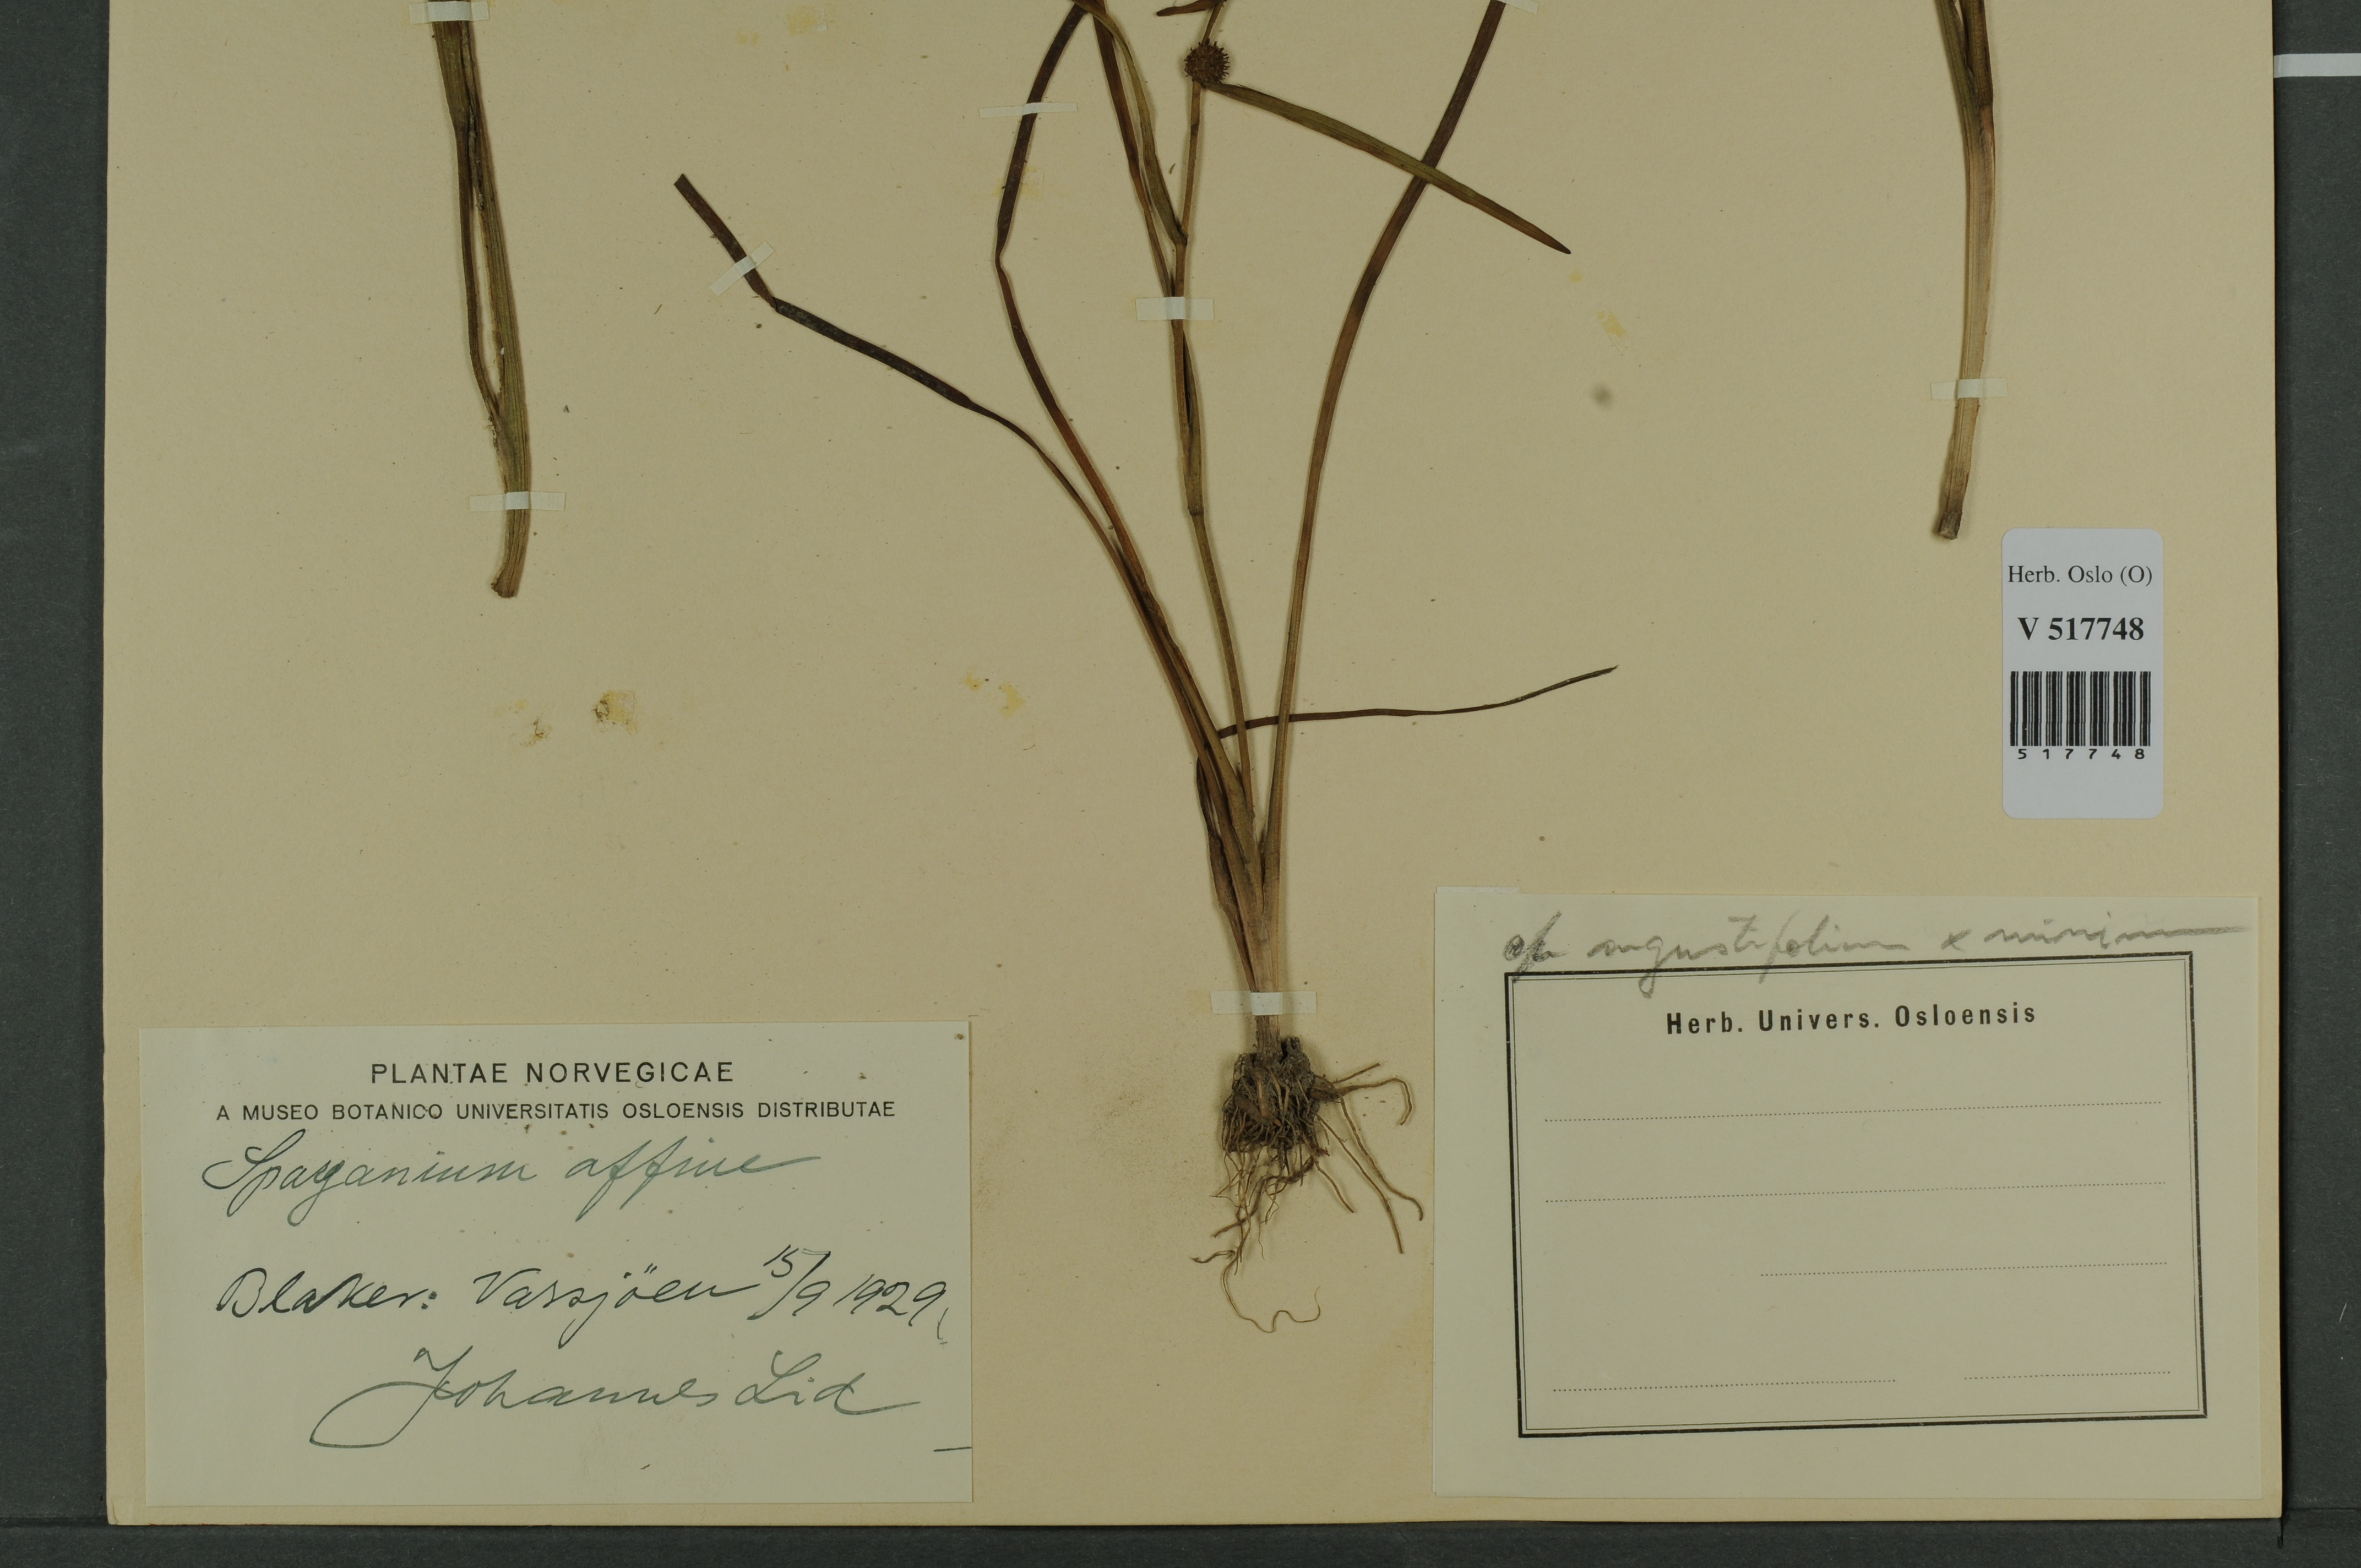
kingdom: Plantae
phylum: Tracheophyta
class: Liliopsida
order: Poales
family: Typhaceae
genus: Sparganium
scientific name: Sparganium
